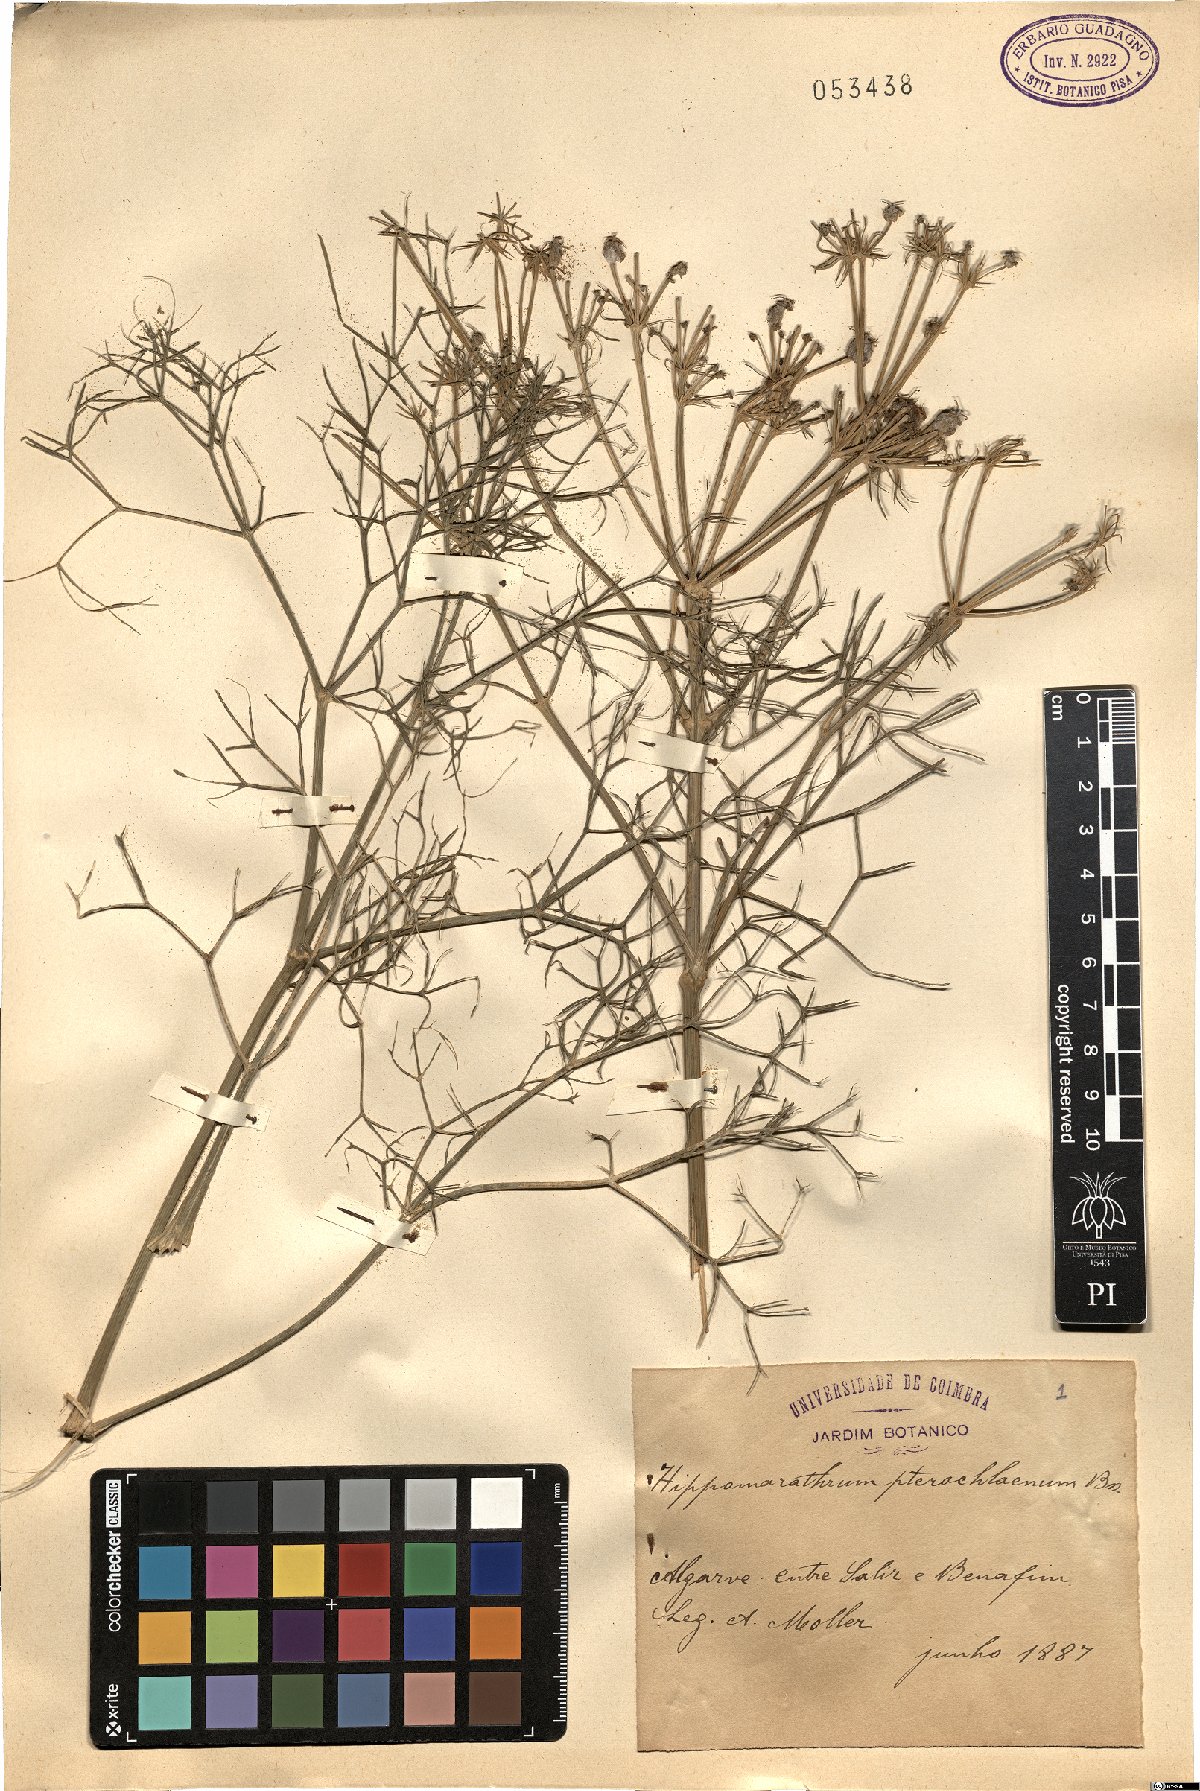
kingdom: Plantae
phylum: Tracheophyta
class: Magnoliopsida
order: Apiales
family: Apiaceae
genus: Cachrys
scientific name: Cachrys cristata
